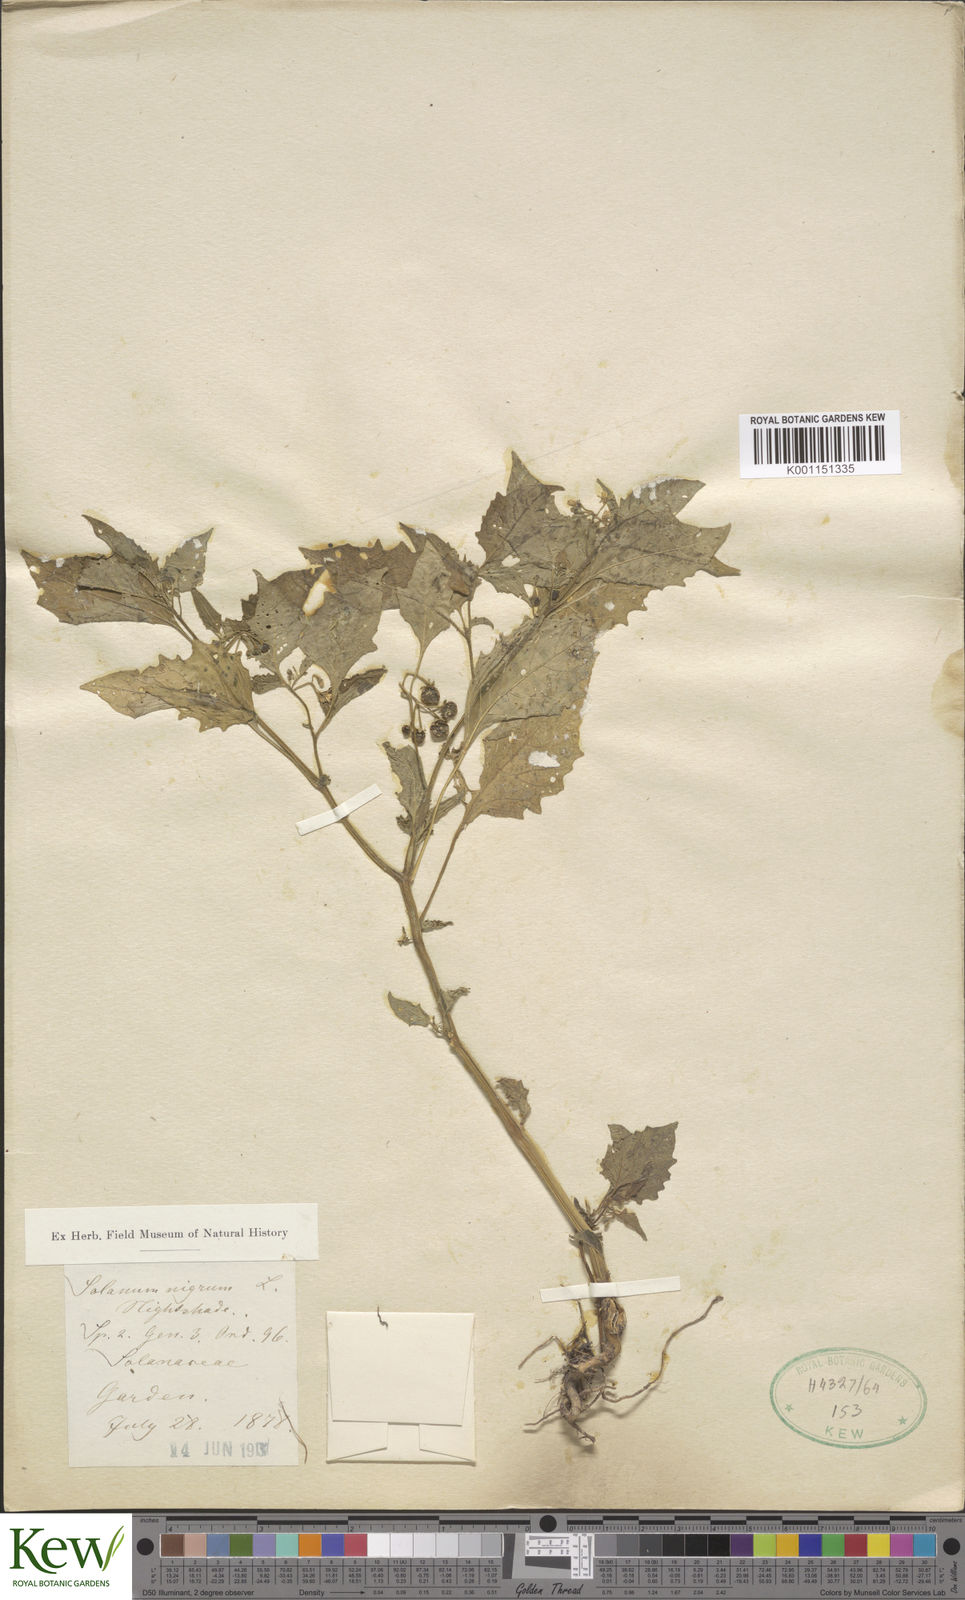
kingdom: Plantae
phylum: Tracheophyta
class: Magnoliopsida
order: Solanales
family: Solanaceae
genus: Solanum
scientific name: Solanum nigrum
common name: Black nightshade
